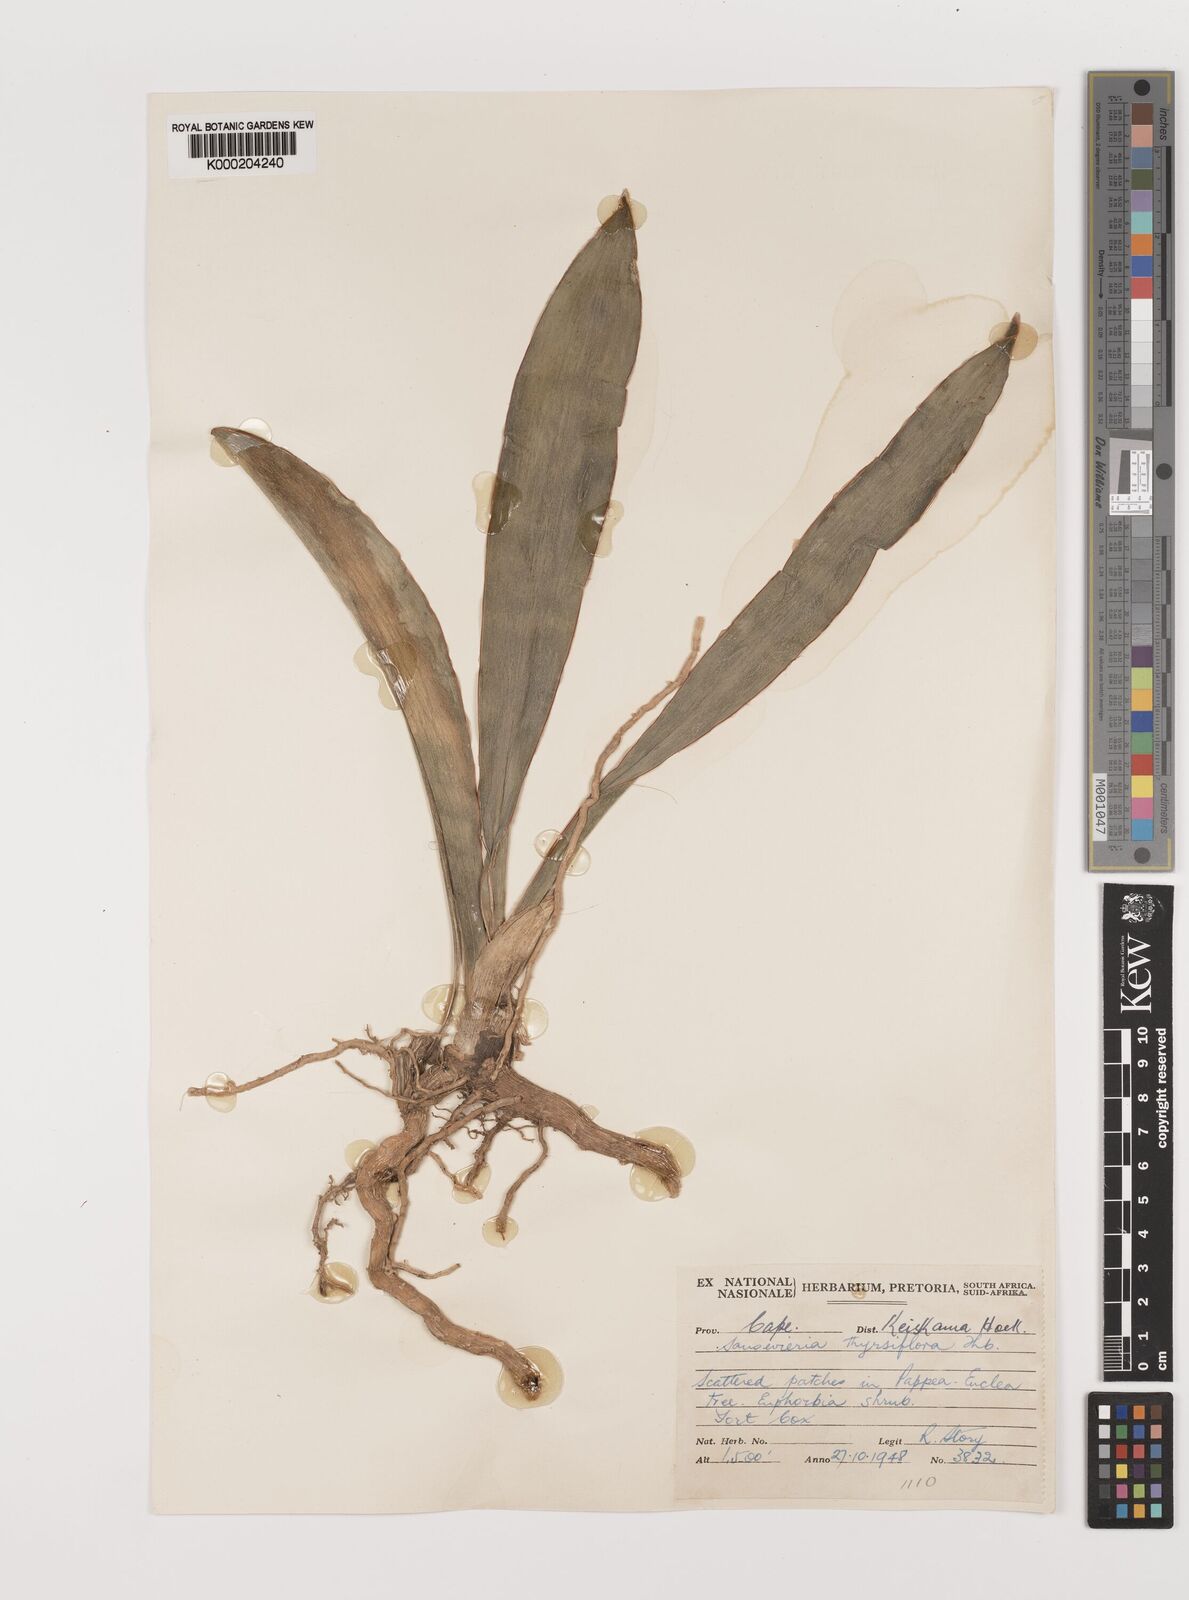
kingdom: Plantae
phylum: Tracheophyta
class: Liliopsida
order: Asparagales
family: Asparagaceae
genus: Dracaena
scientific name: Dracaena hyacinthoides
